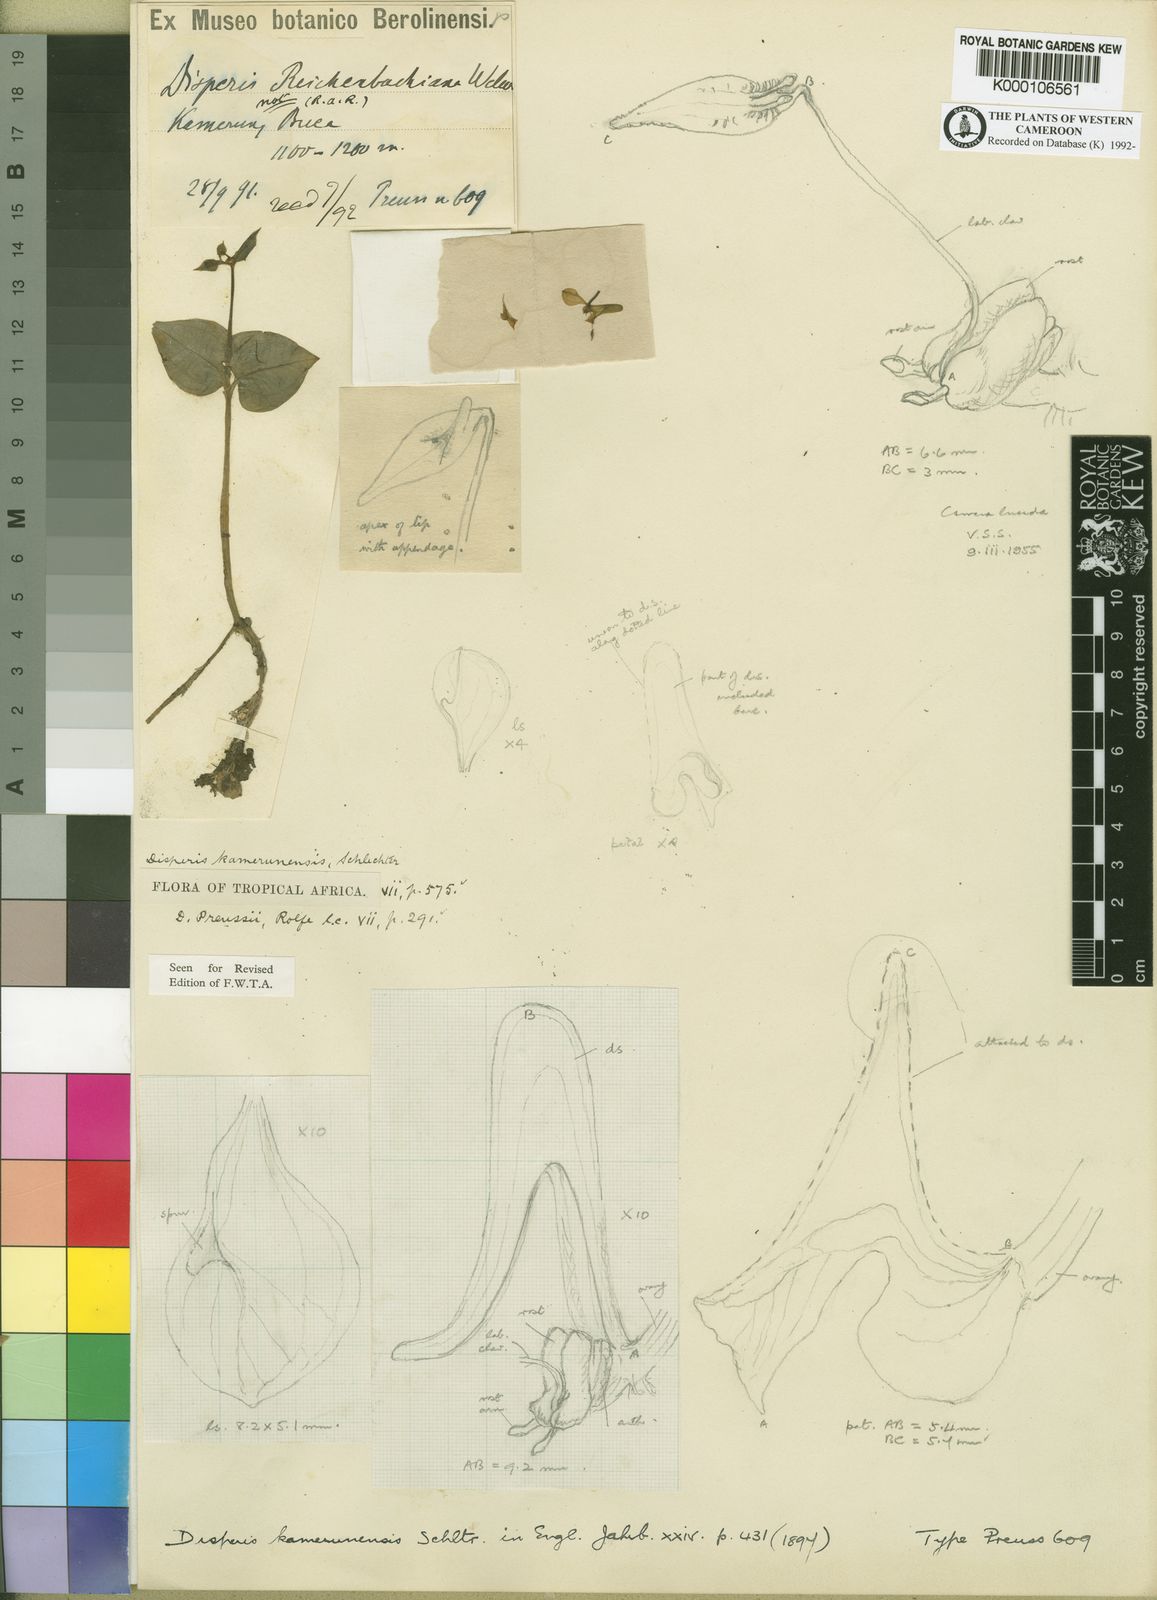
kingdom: Plantae
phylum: Tracheophyta
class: Liliopsida
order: Asparagales
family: Orchidaceae
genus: Disperis
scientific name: Disperis kamerunensis
